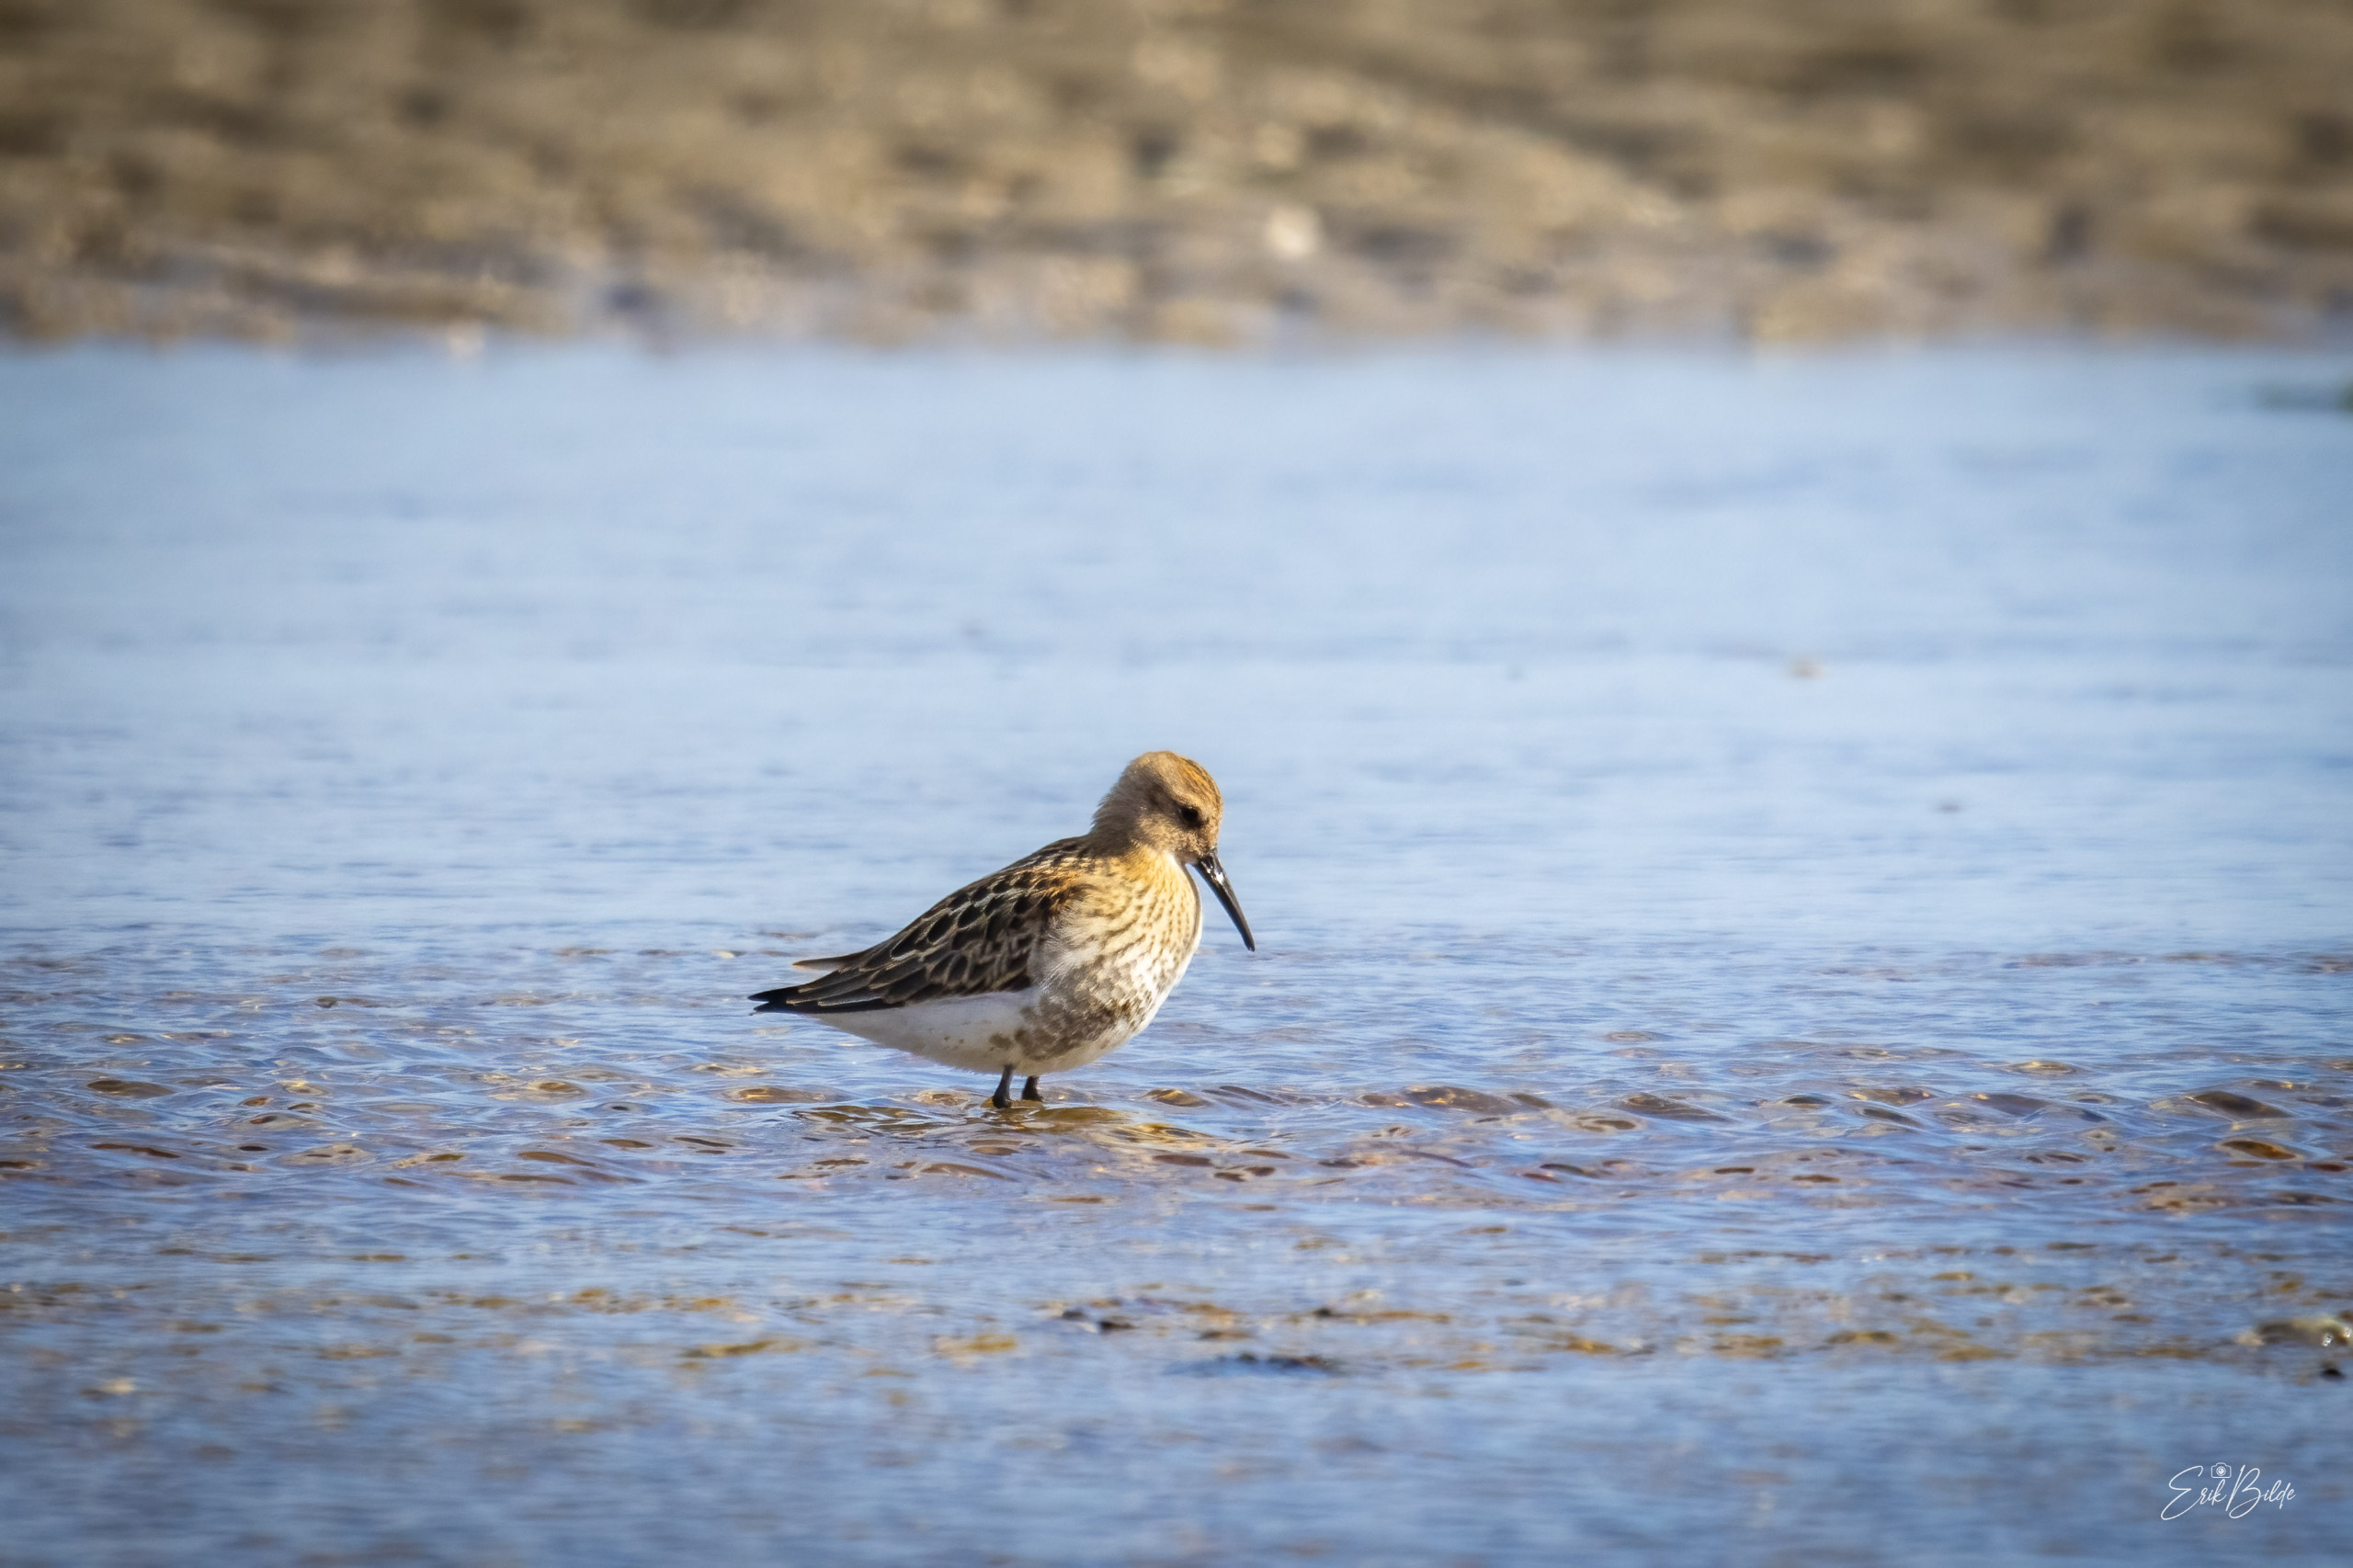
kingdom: Animalia
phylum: Chordata
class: Aves
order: Charadriiformes
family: Scolopacidae
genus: Calidris
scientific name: Calidris alpina
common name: Almindelig ryle
